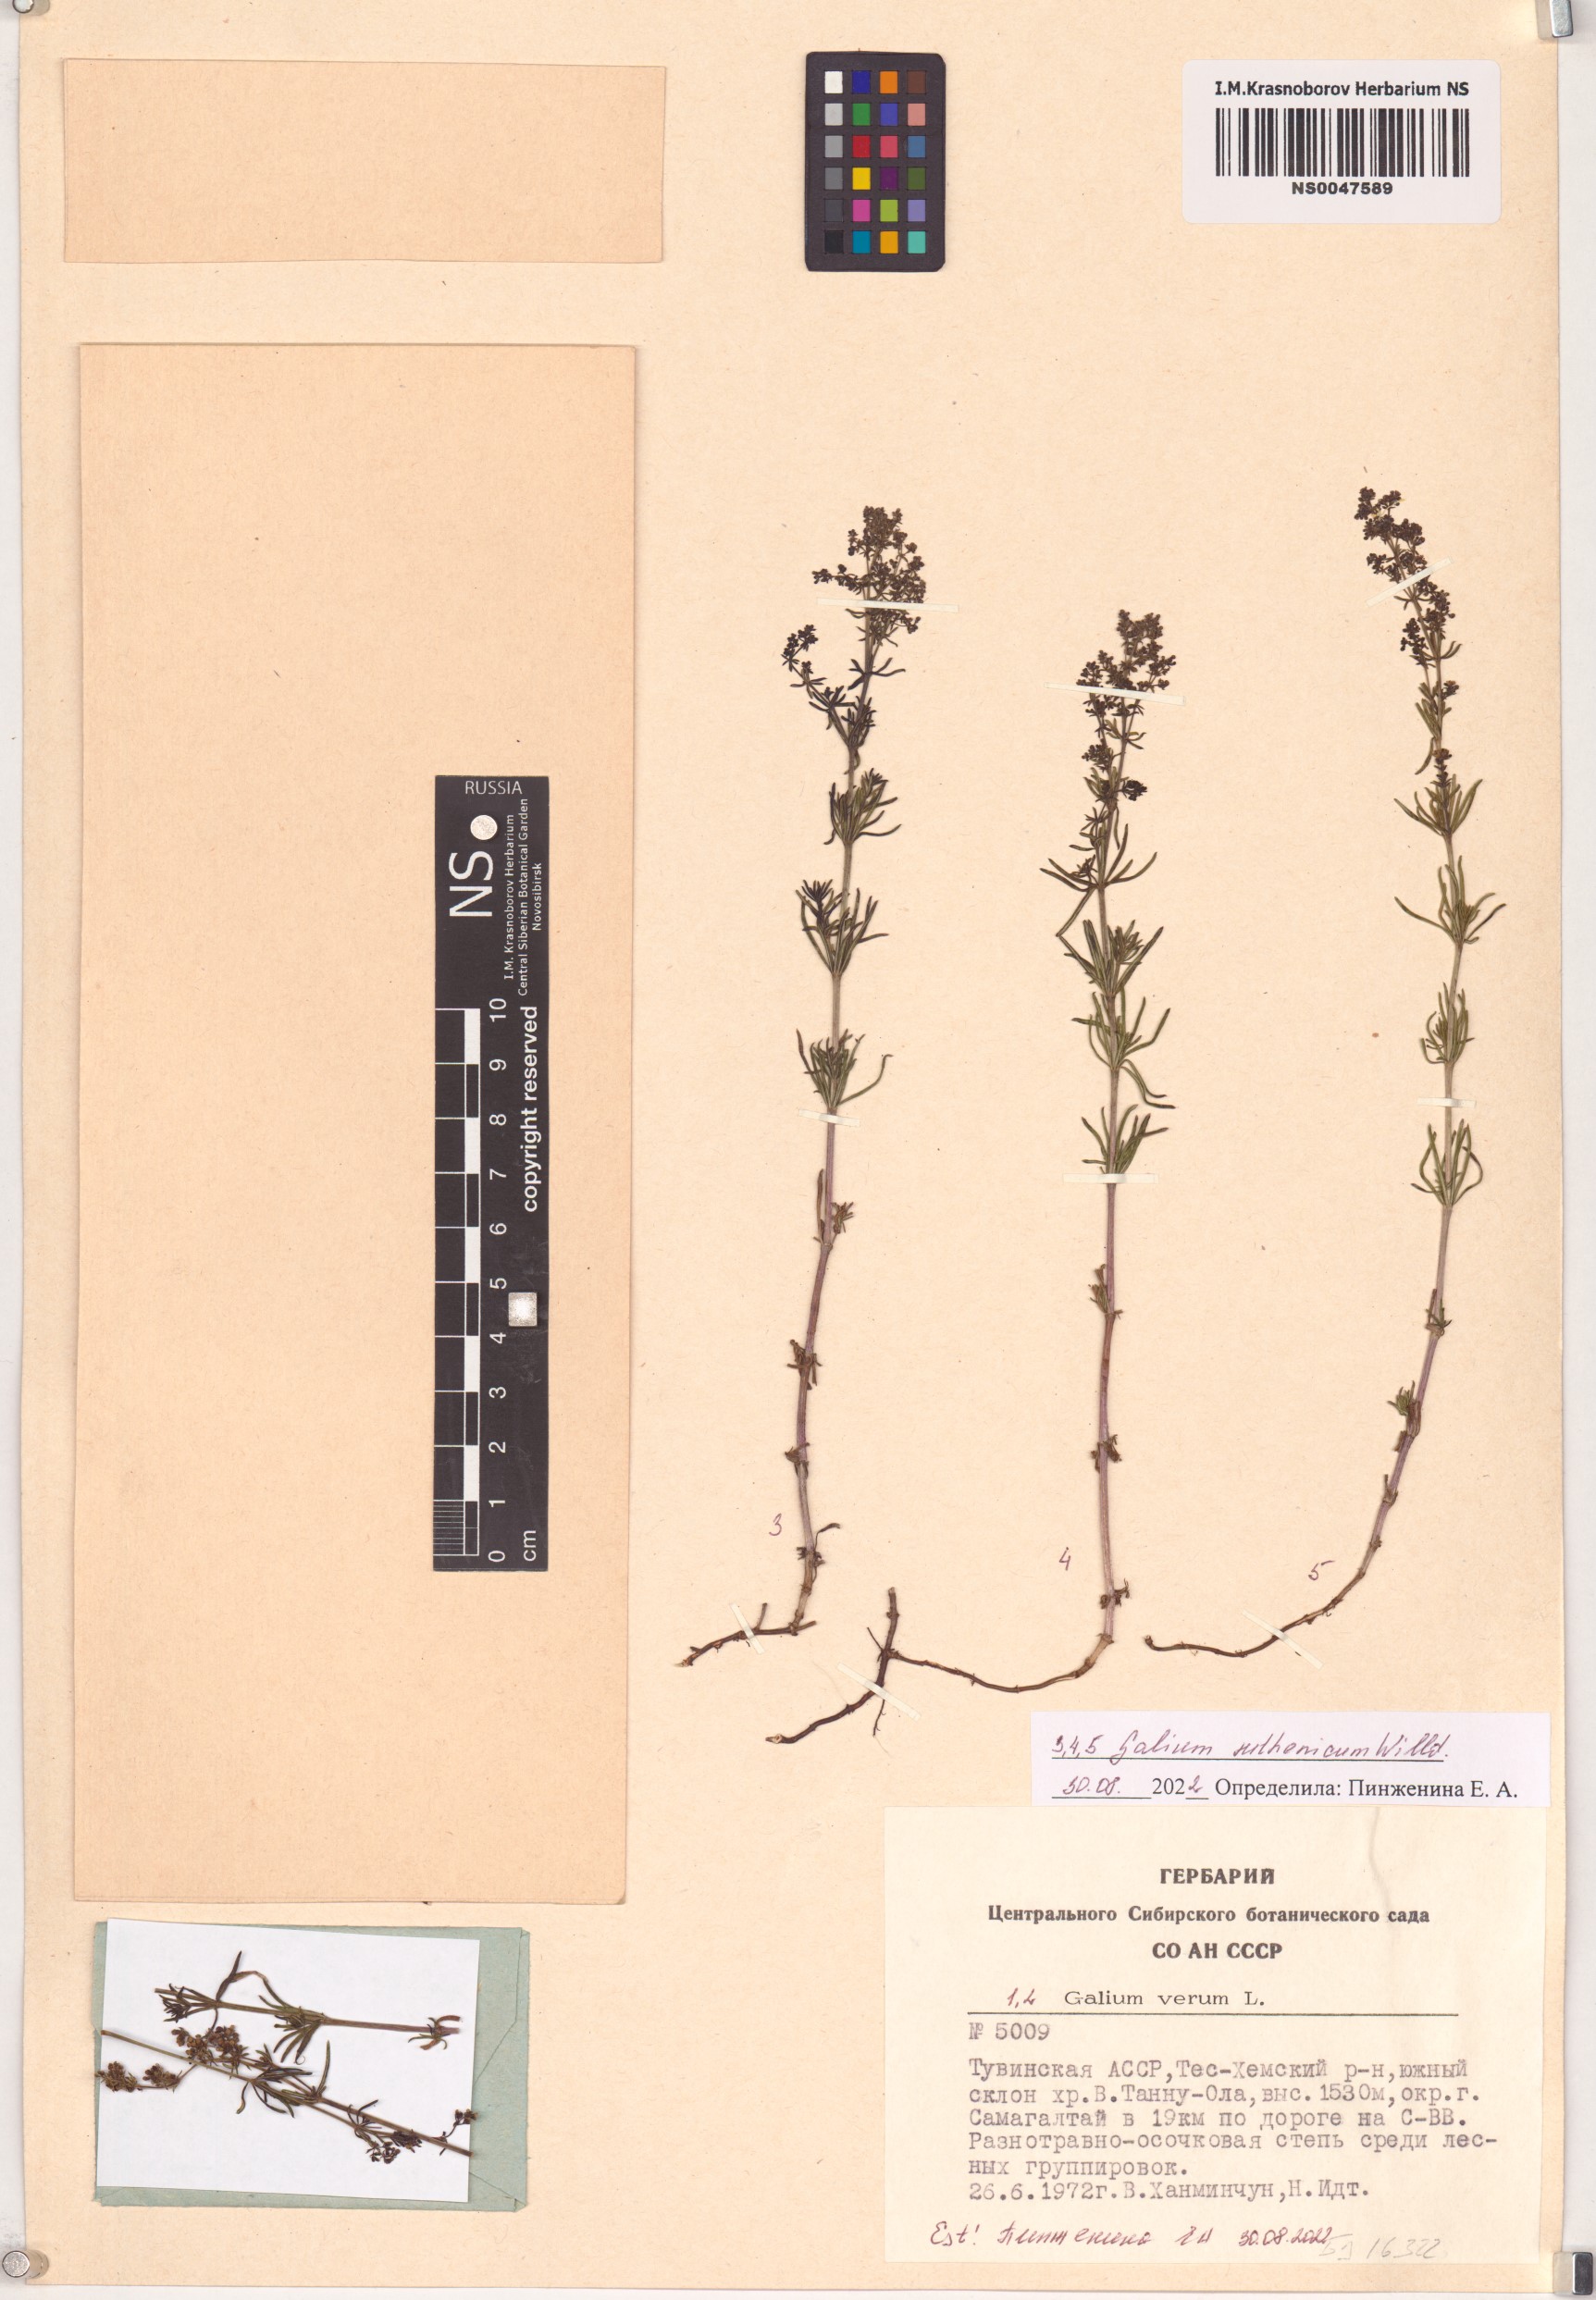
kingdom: Plantae
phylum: Tracheophyta
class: Magnoliopsida
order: Gentianales
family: Rubiaceae
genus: Galium
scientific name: Galium verum
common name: Lady's bedstraw
